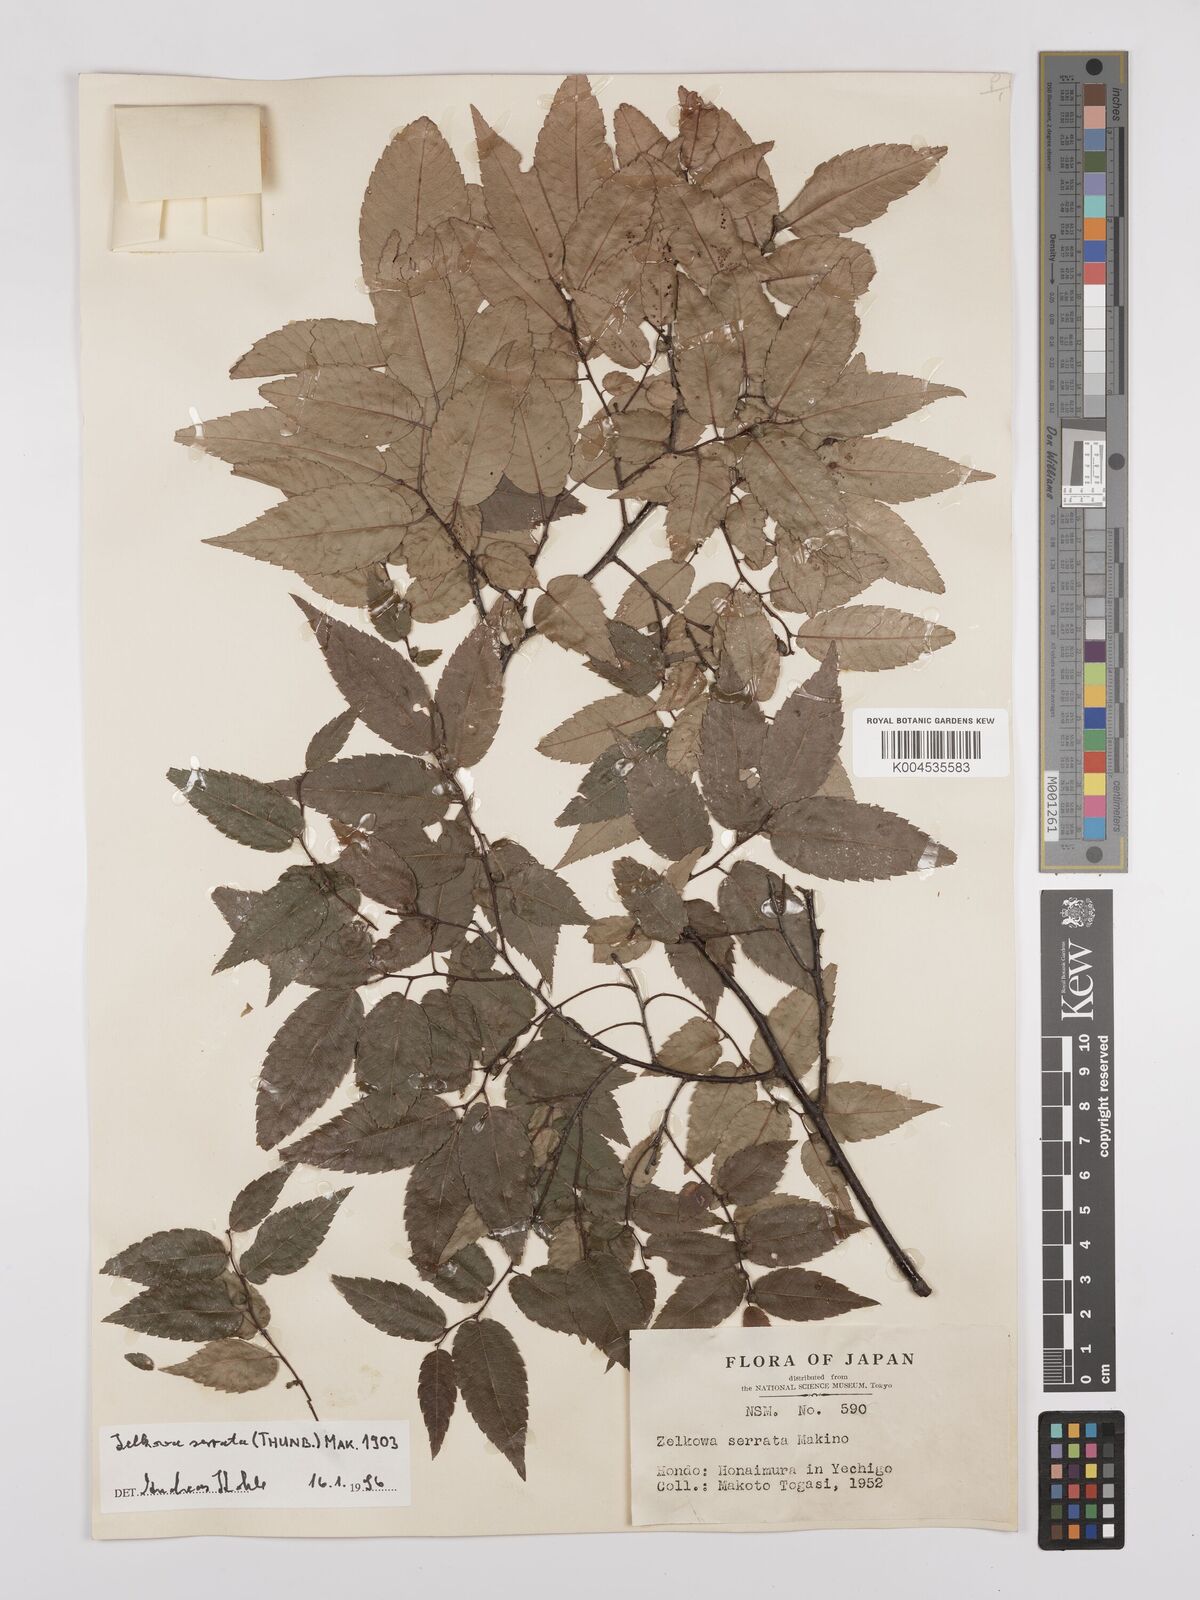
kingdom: Plantae
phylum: Tracheophyta
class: Magnoliopsida
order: Rosales
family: Ulmaceae
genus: Zelkova
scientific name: Zelkova serrata
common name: Japanese zelkova
